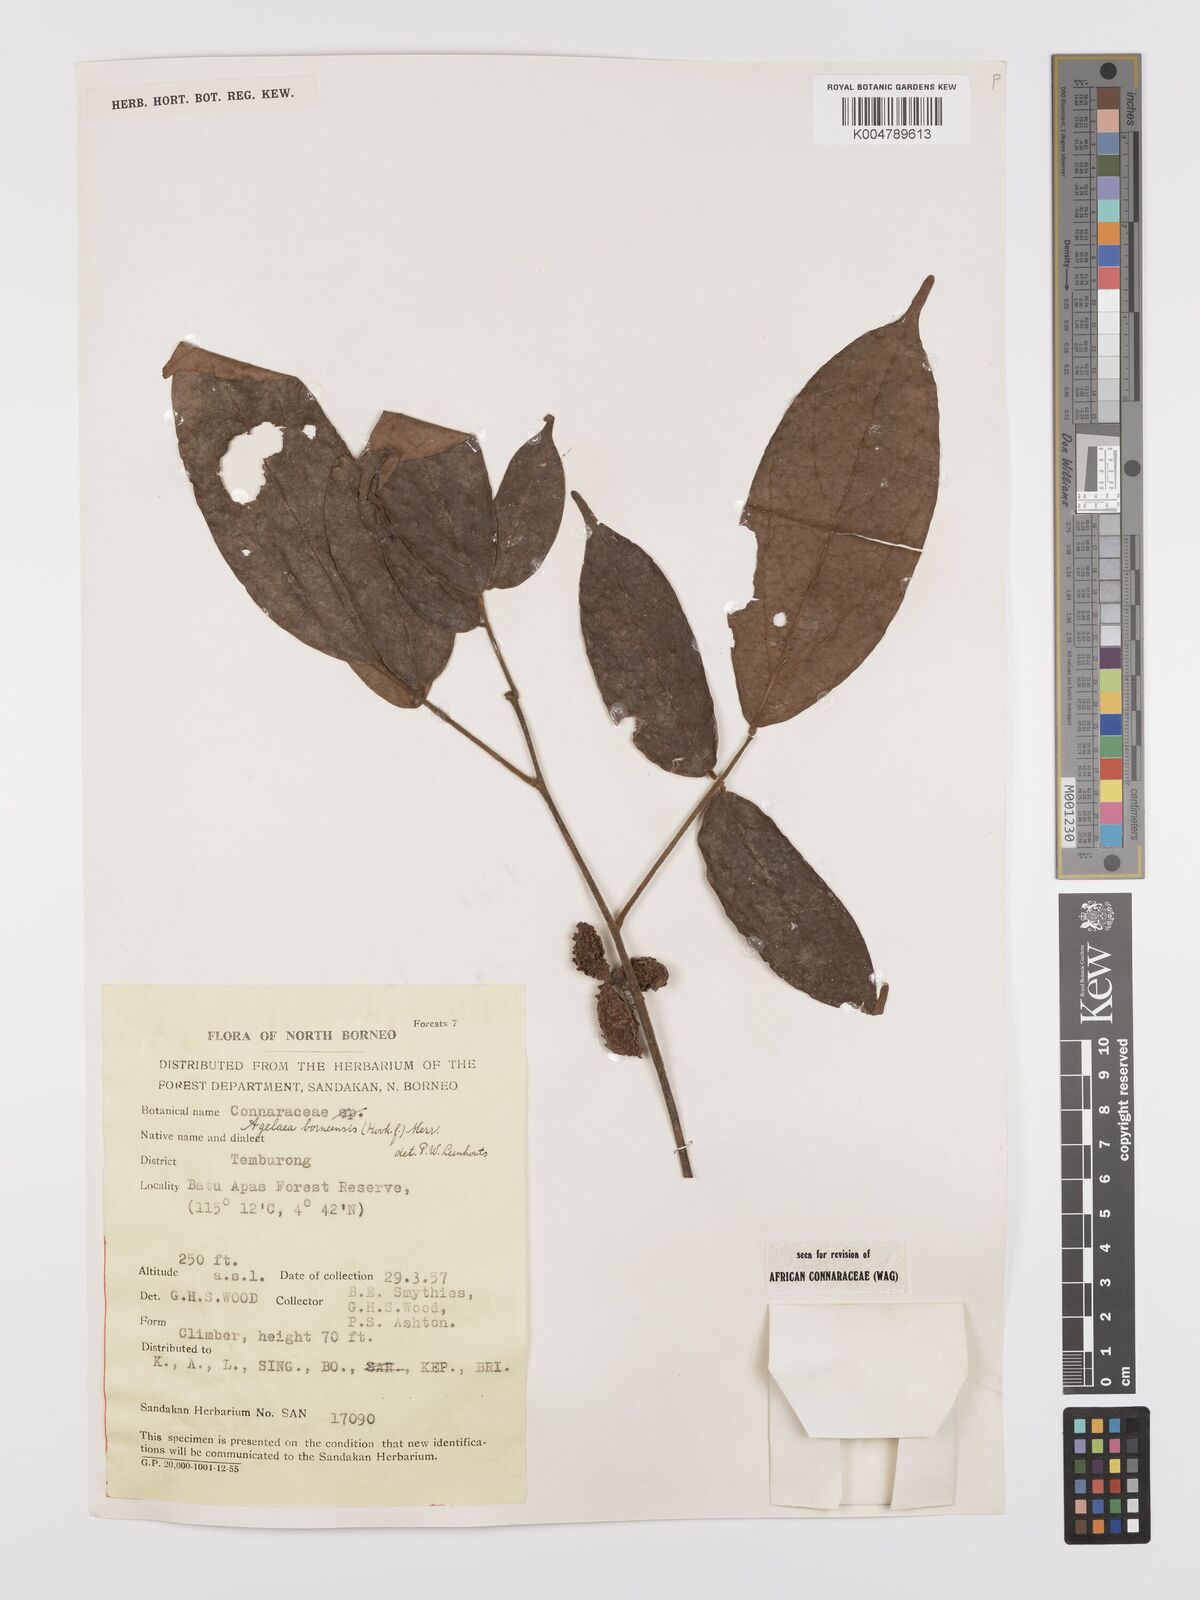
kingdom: Plantae
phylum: Tracheophyta
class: Magnoliopsida
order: Oxalidales
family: Connaraceae
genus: Agelaea
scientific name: Agelaea borneensis
